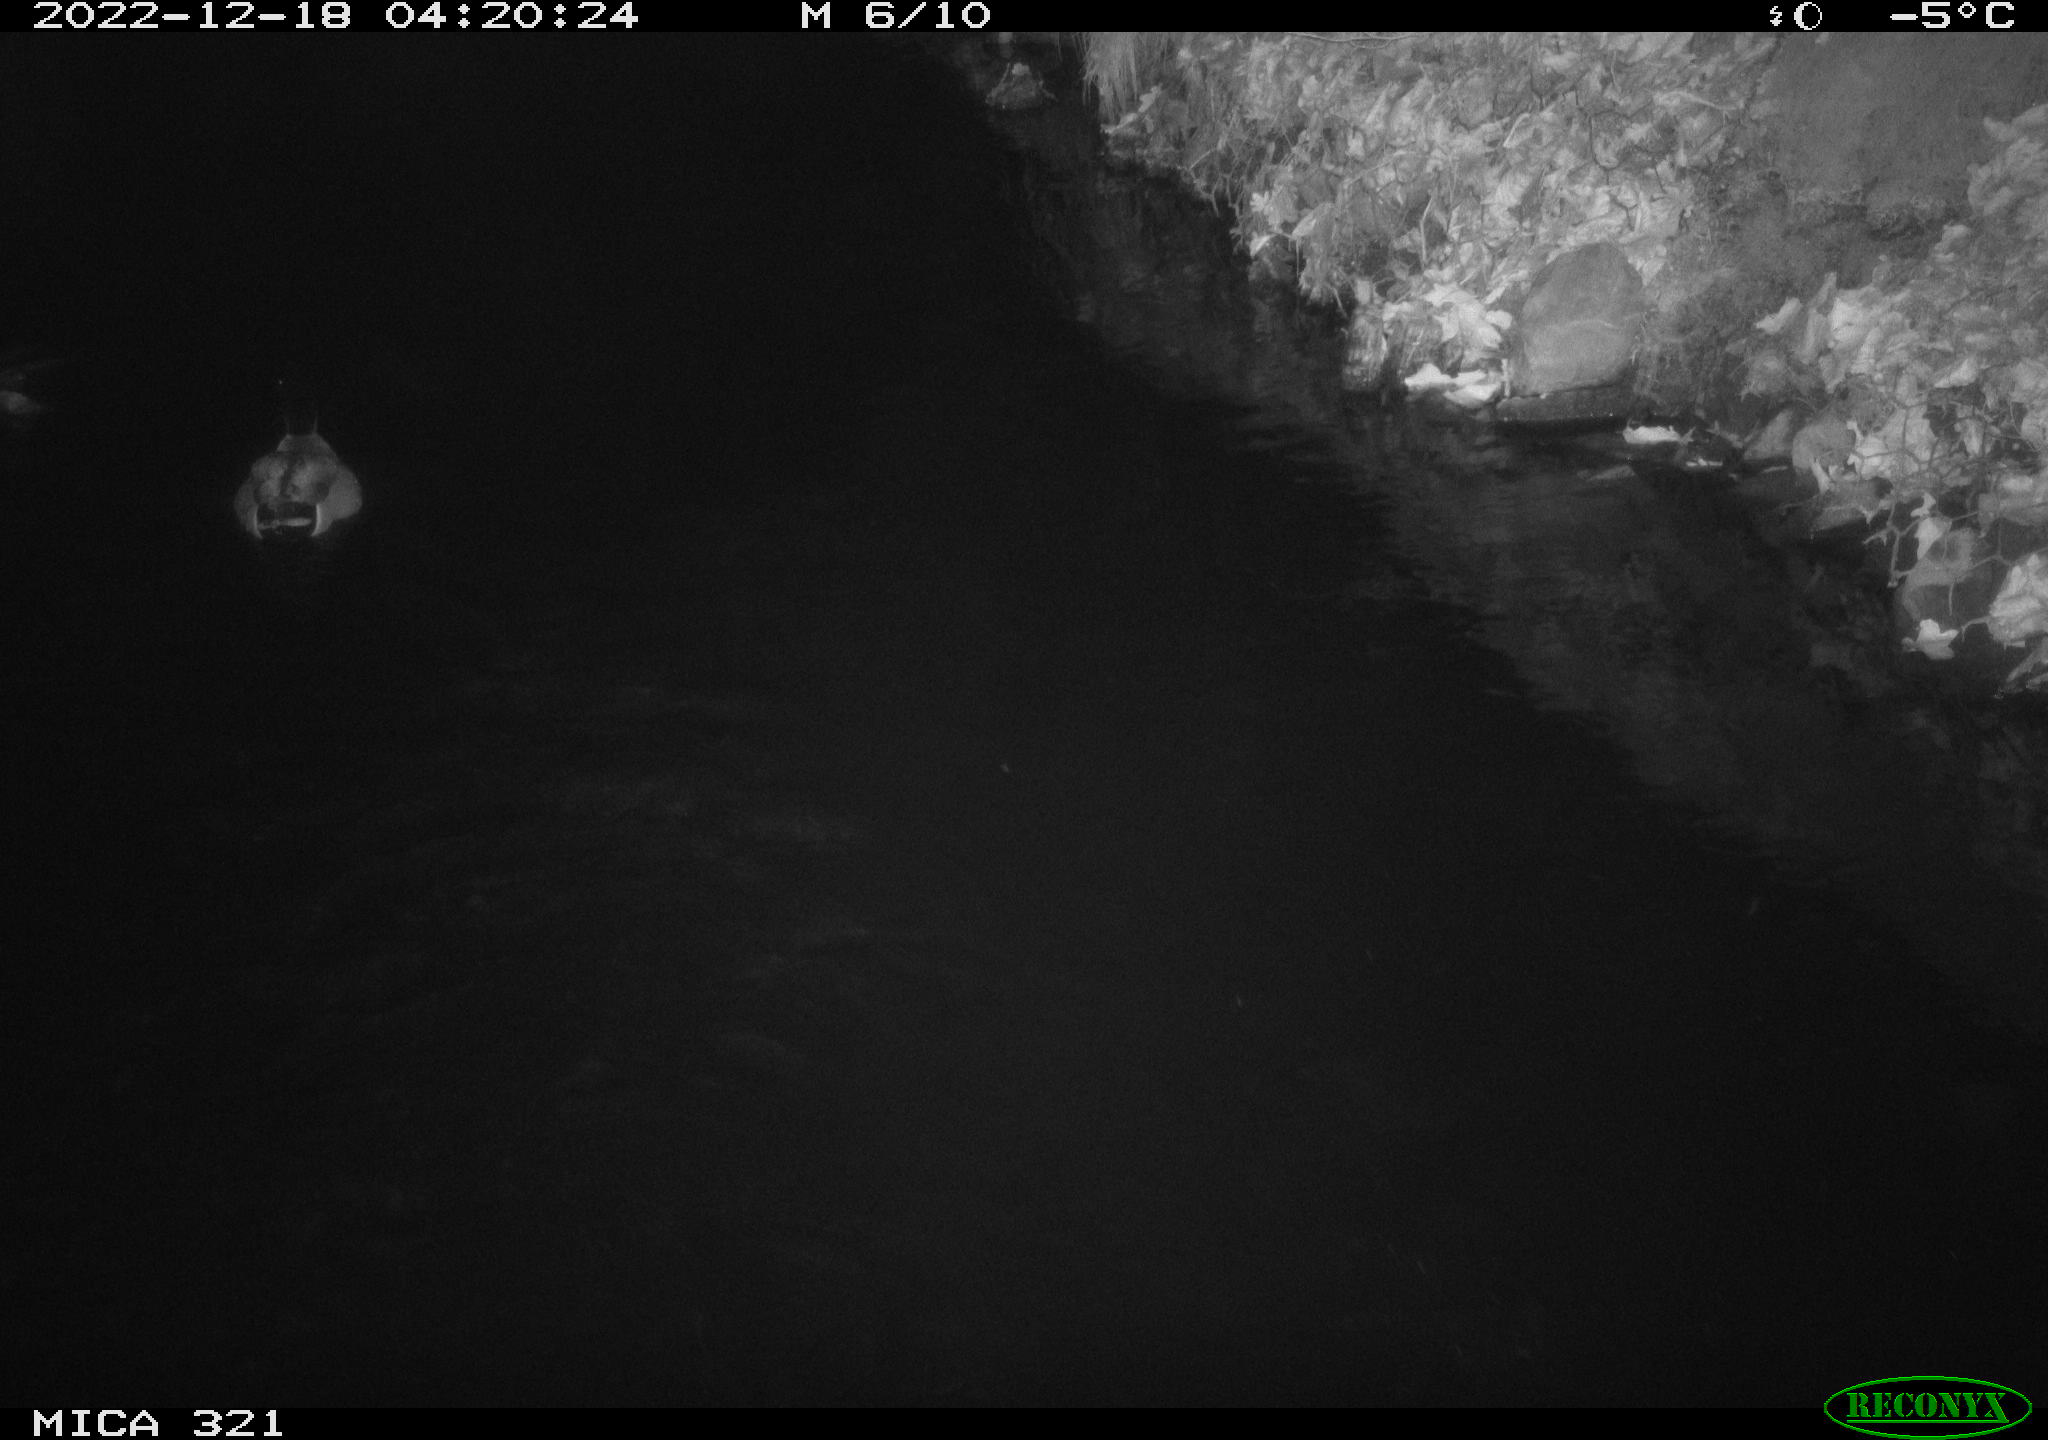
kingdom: Animalia
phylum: Chordata
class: Aves
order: Anseriformes
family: Anatidae
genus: Anas
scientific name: Anas
